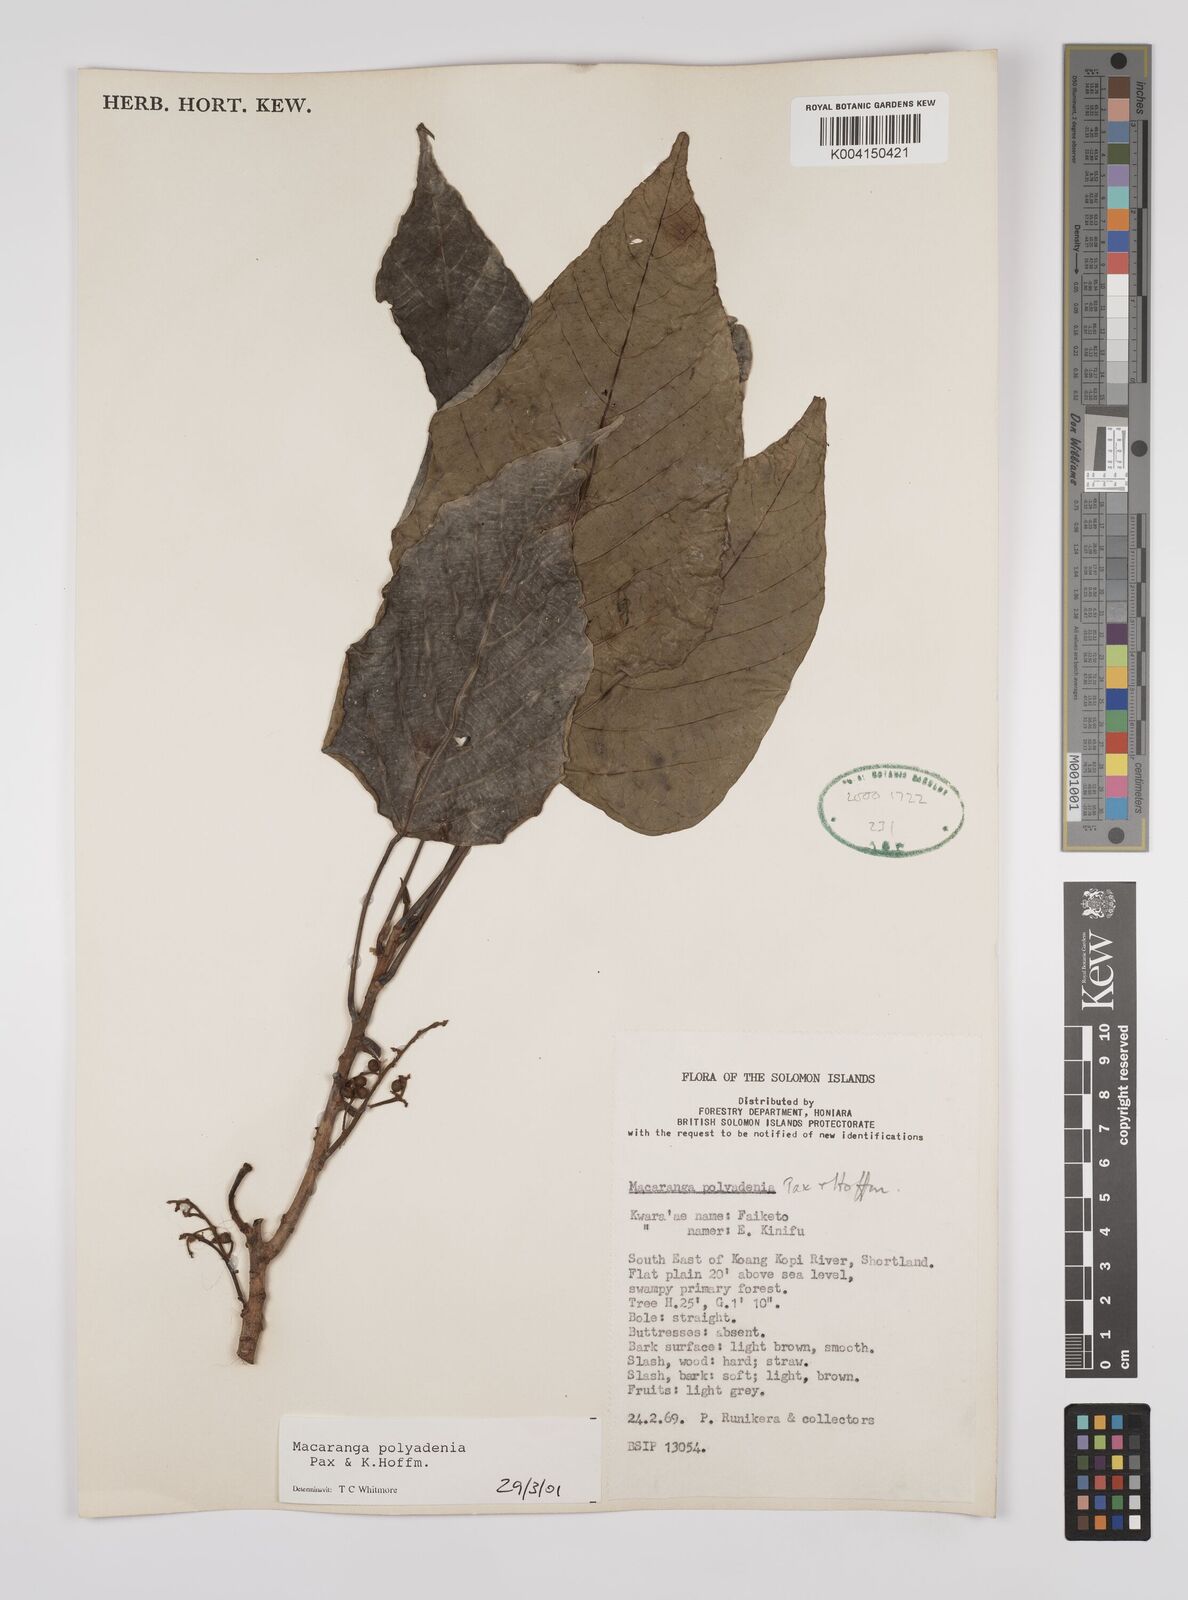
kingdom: Plantae
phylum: Tracheophyta
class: Magnoliopsida
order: Malpighiales
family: Euphorbiaceae
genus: Macaranga
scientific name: Macaranga polyadenia
